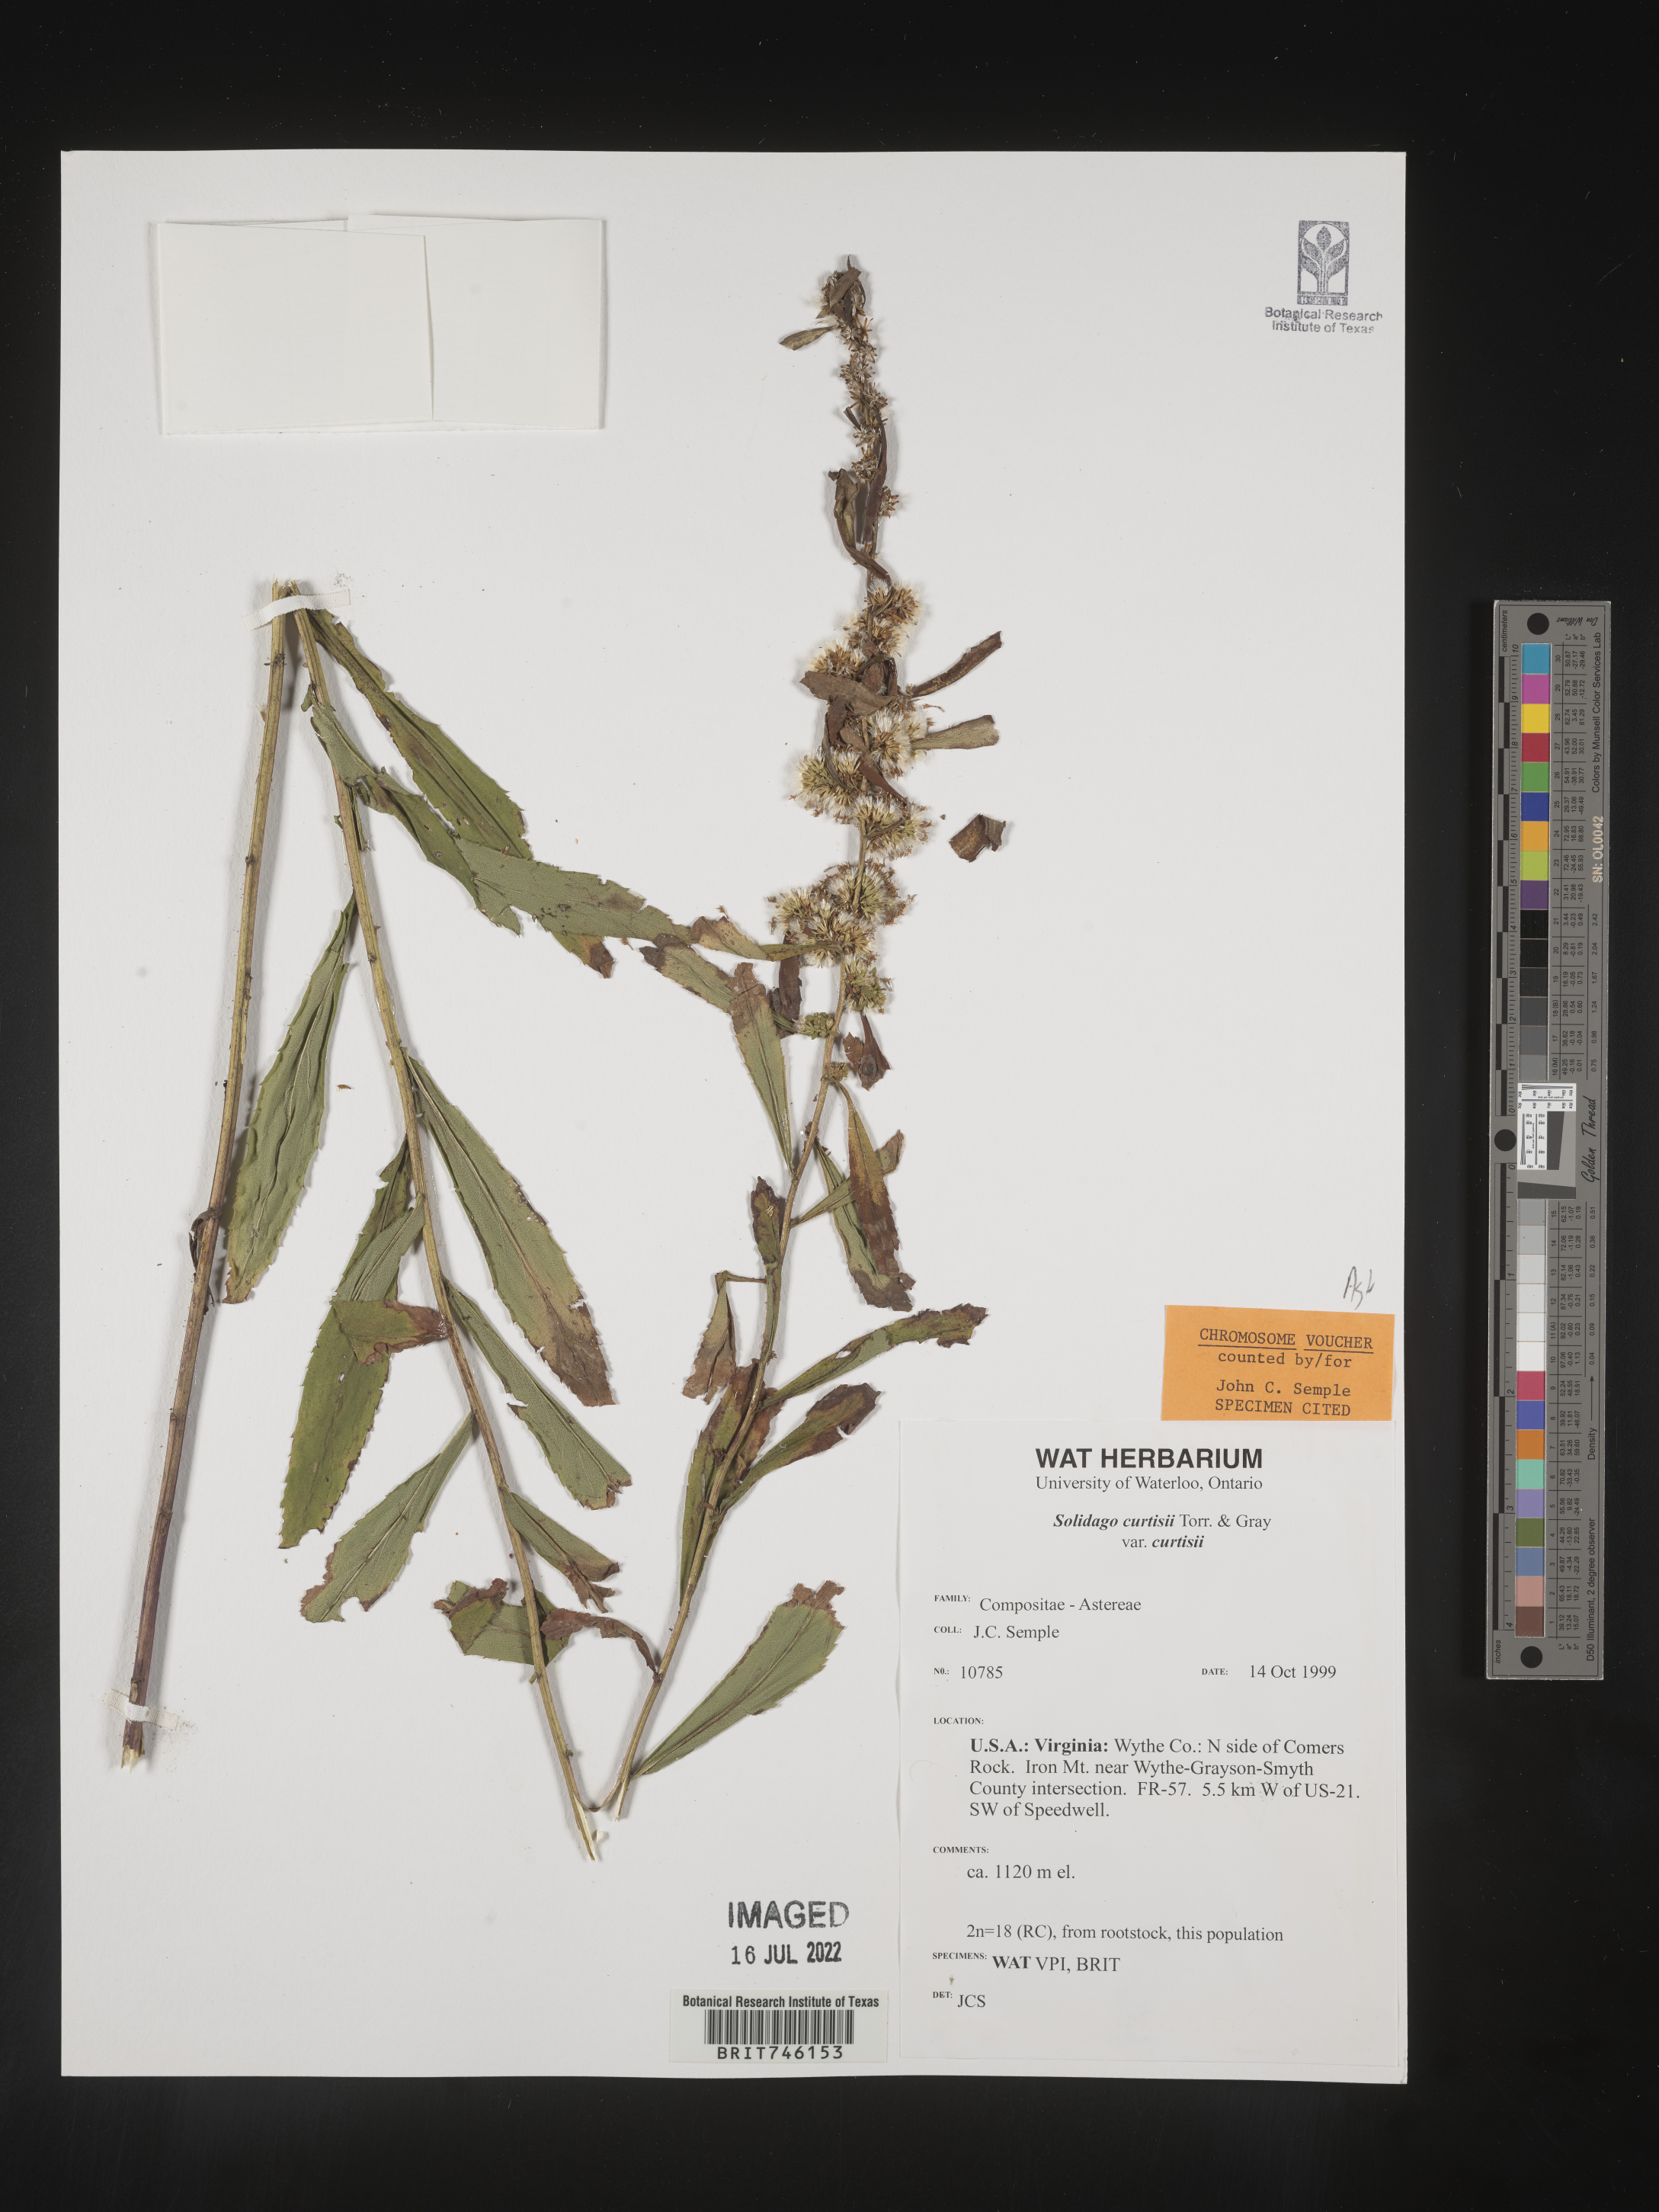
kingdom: Plantae
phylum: Tracheophyta
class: Magnoliopsida
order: Asterales
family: Asteraceae
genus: Solidago
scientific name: Solidago curtisii
